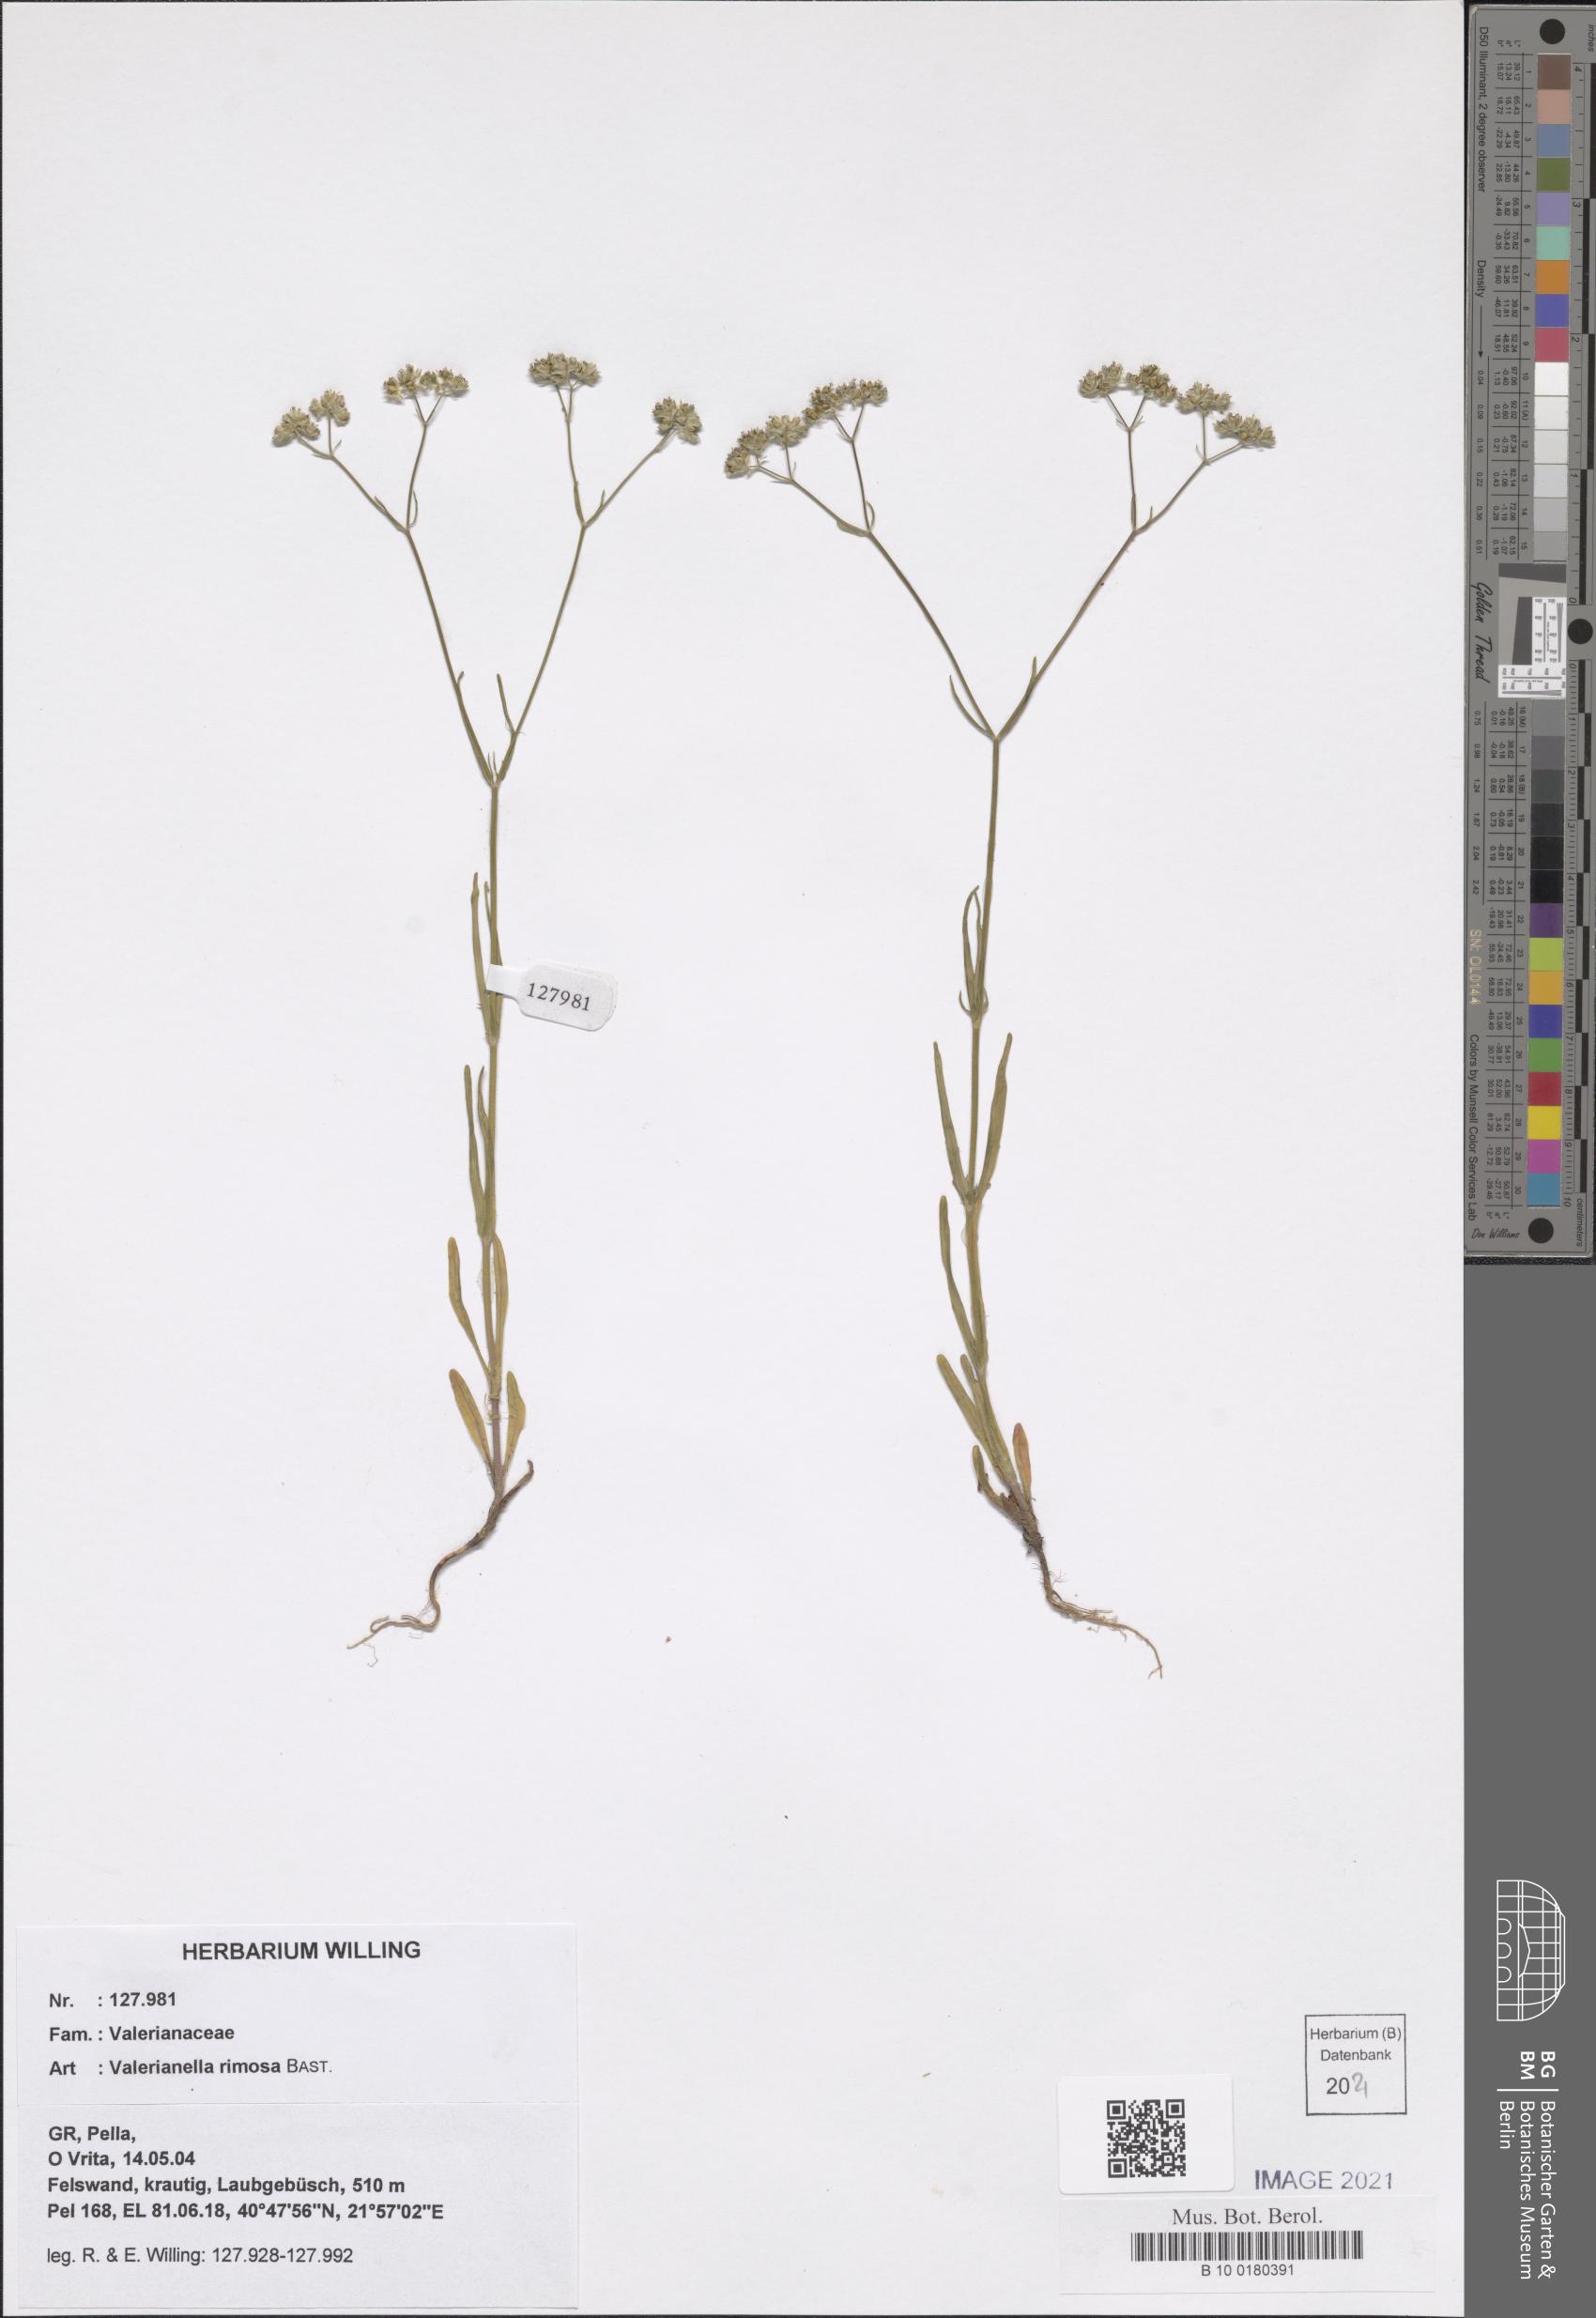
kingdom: Plantae
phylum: Tracheophyta
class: Magnoliopsida
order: Dipsacales
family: Caprifoliaceae
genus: Valerianella
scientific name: Valerianella rimosa
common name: Broad-fruited cornsalad
